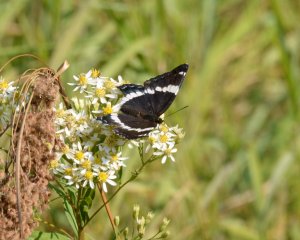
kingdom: Animalia
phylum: Arthropoda
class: Insecta
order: Lepidoptera
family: Nymphalidae
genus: Limenitis
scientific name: Limenitis arthemis
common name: Red-spotted Admiral
